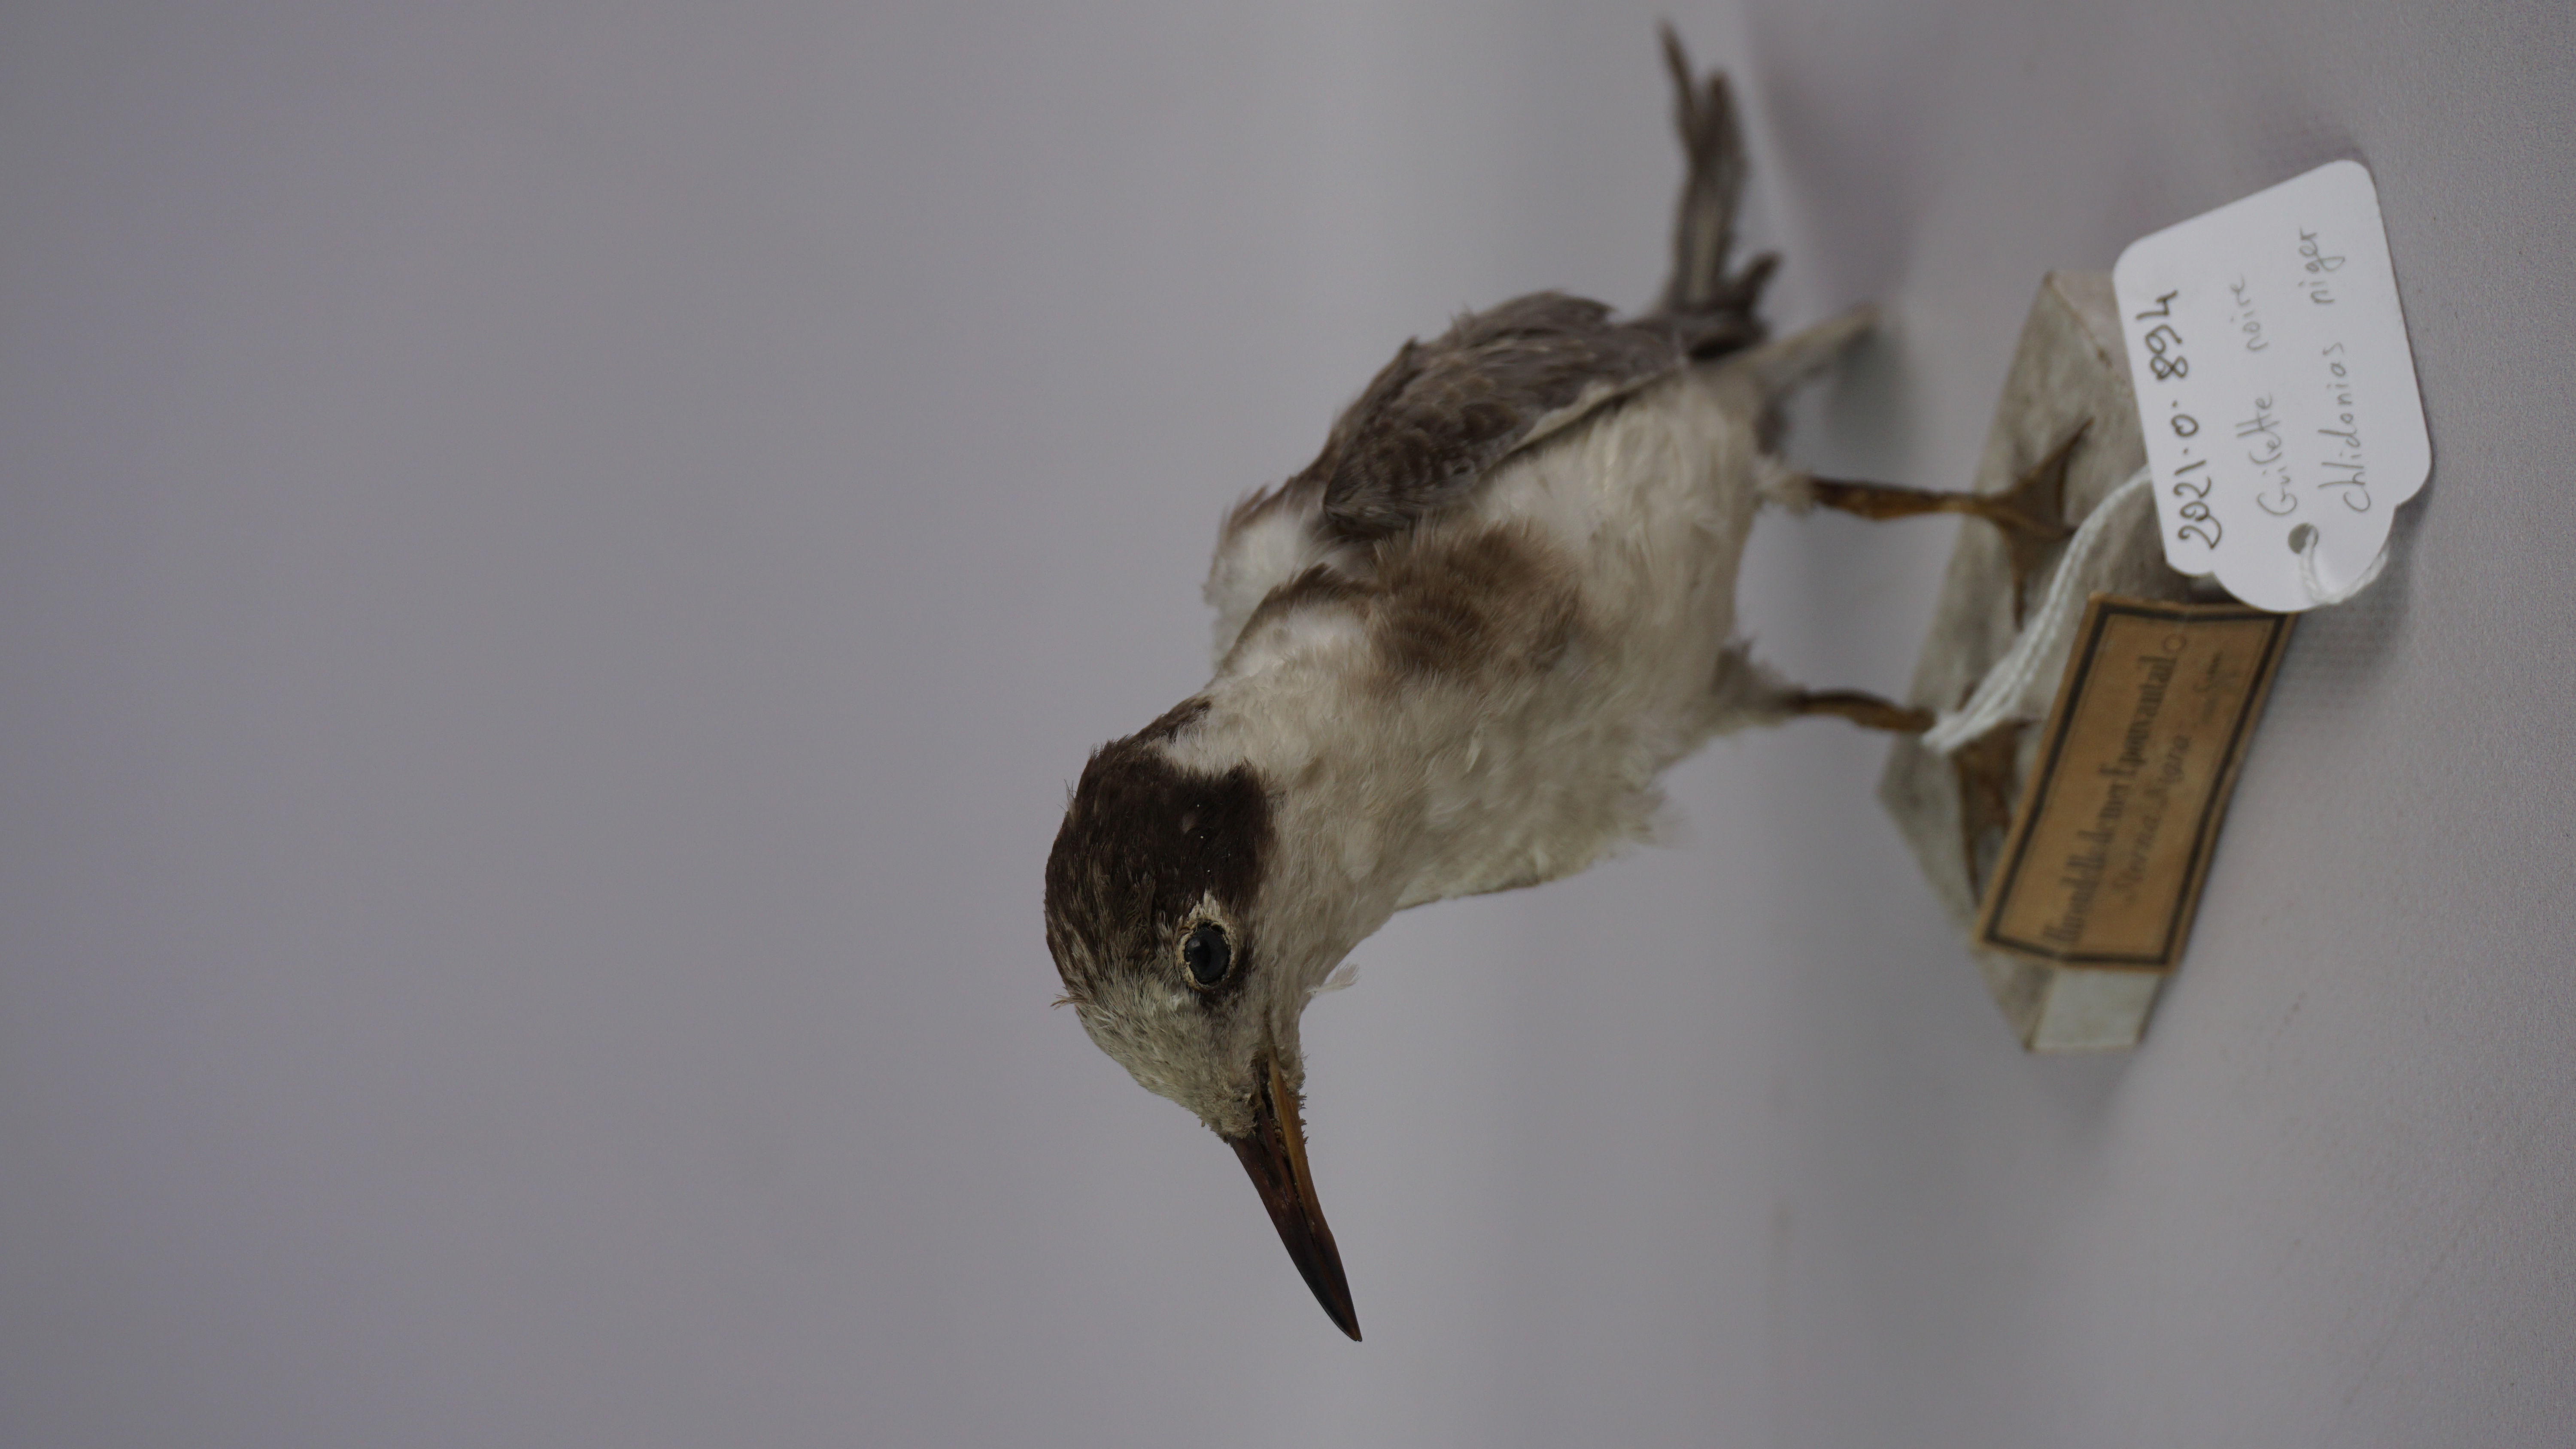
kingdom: Animalia
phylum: Chordata
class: Aves
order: Charadriiformes
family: Laridae
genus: Chlidonias
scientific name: Chlidonias niger
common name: Black tern
